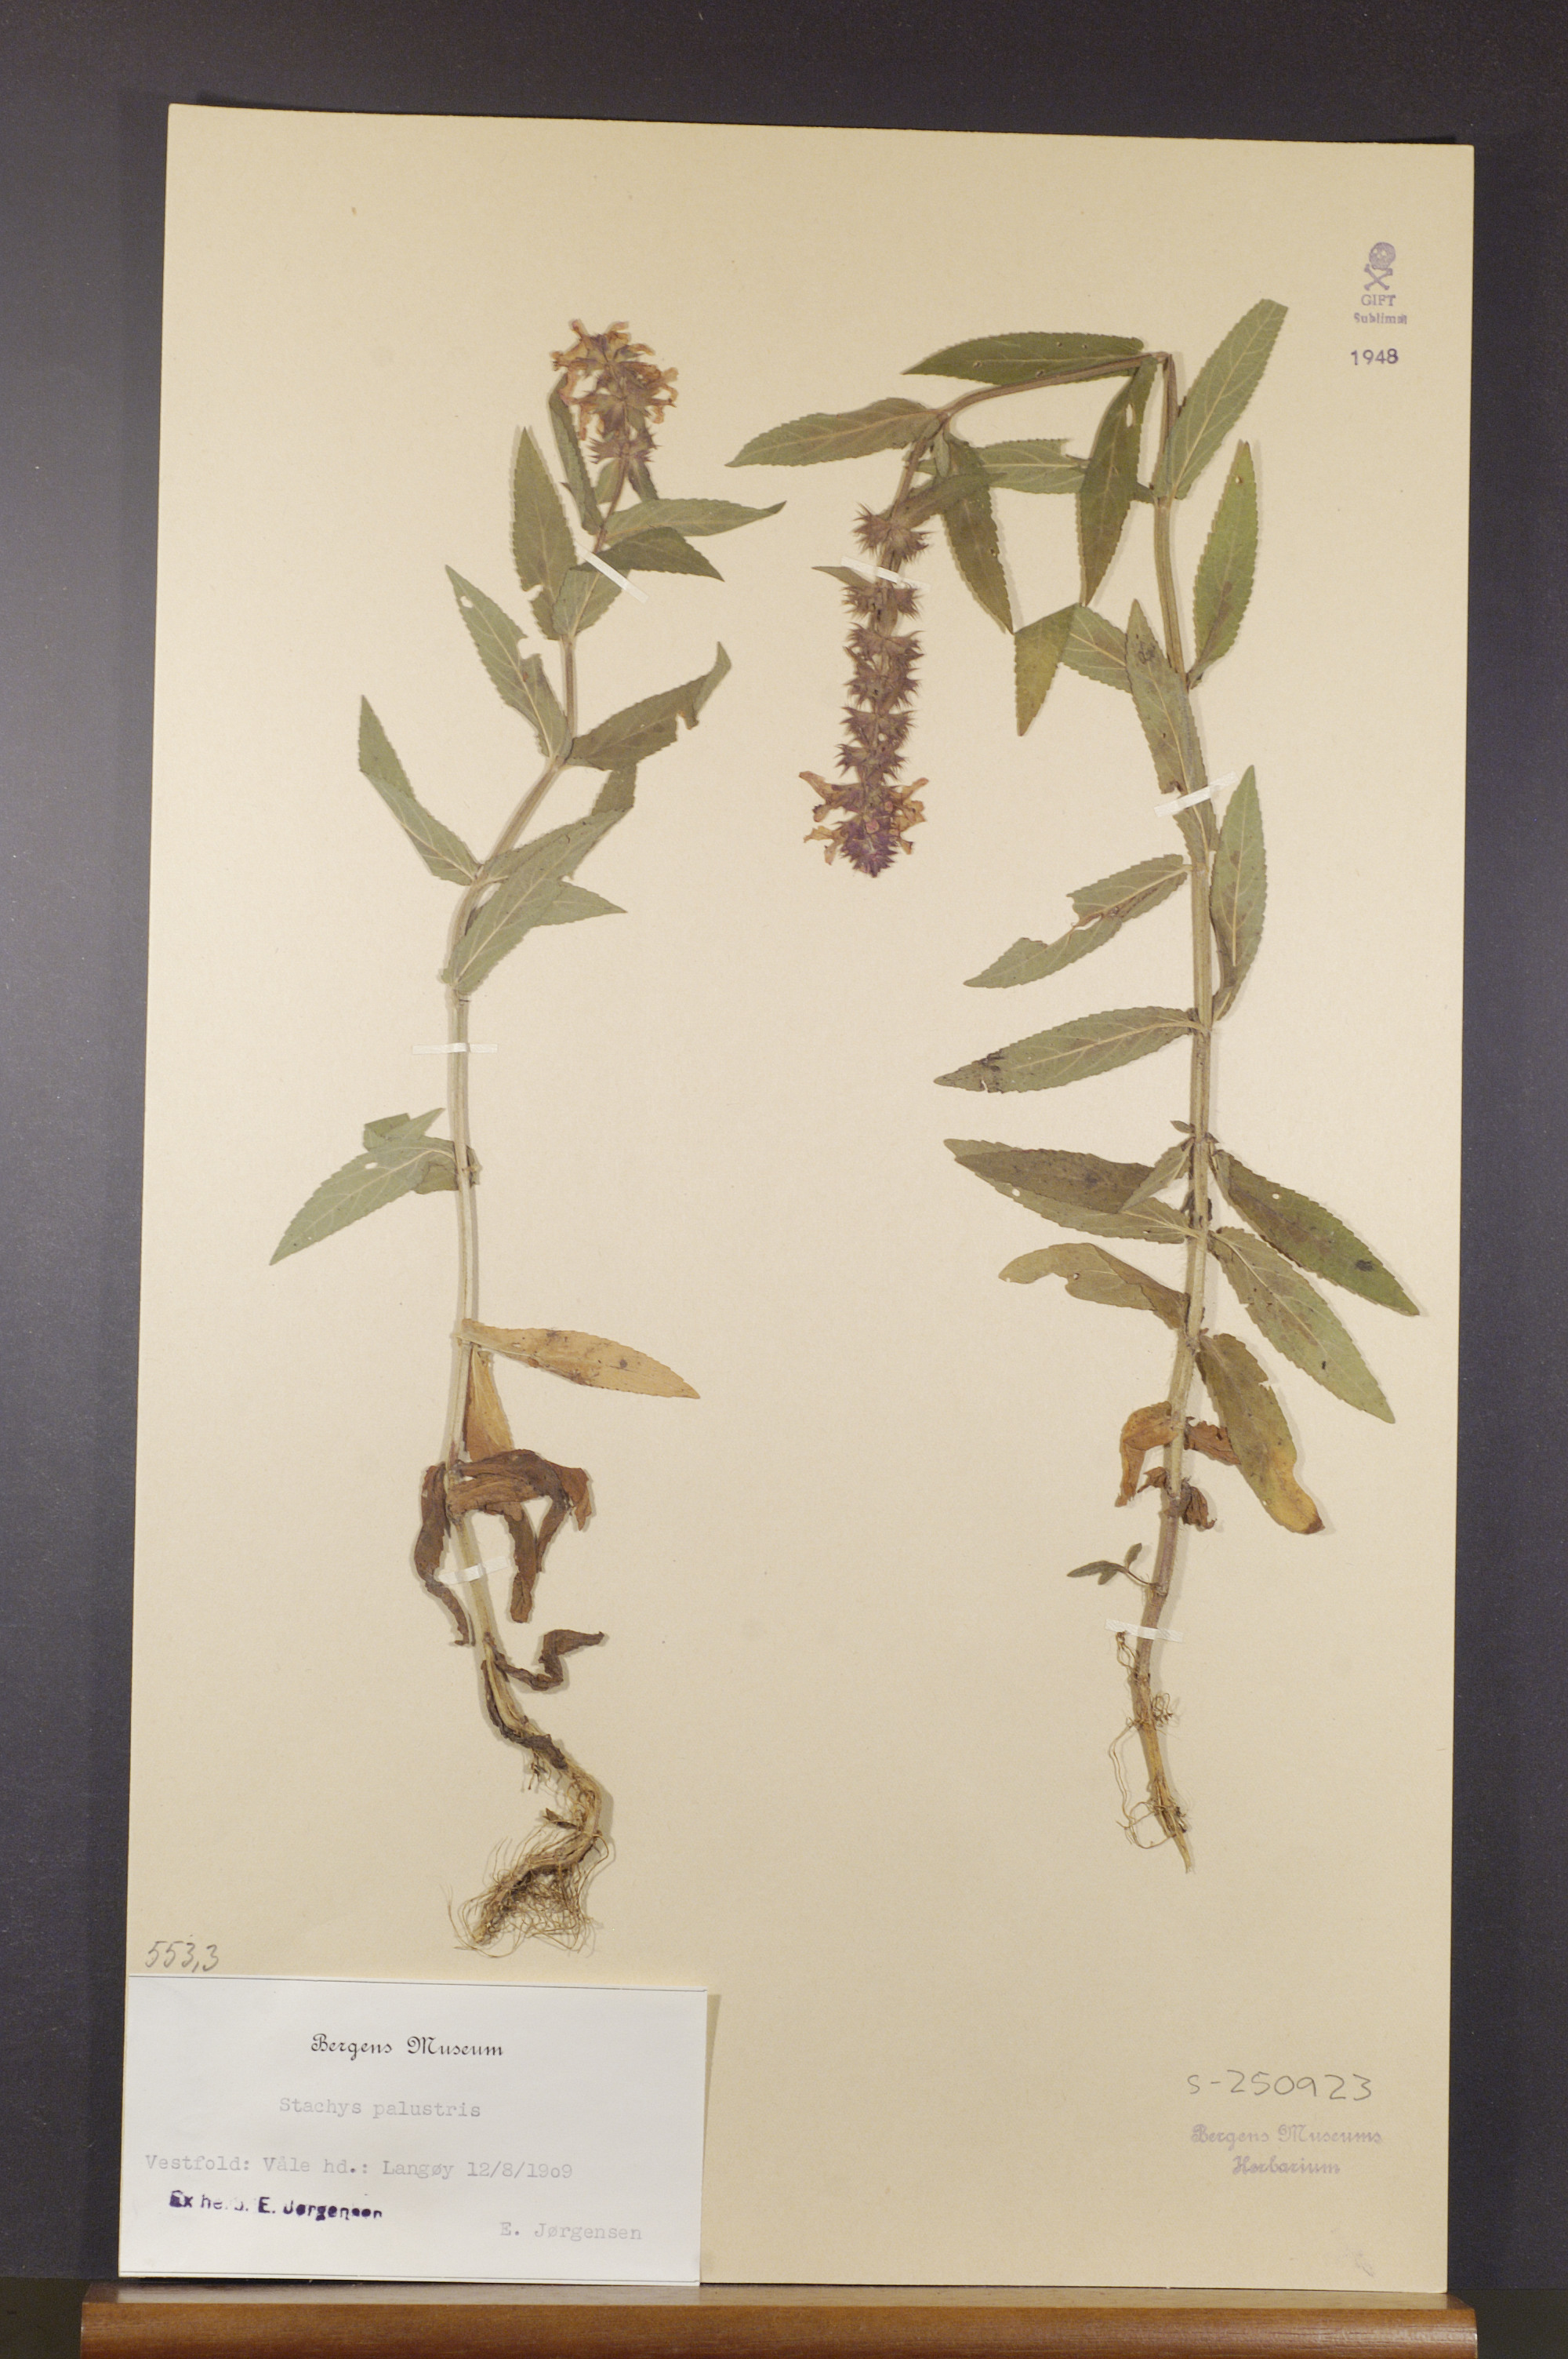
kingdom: Plantae
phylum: Tracheophyta
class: Magnoliopsida
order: Lamiales
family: Lamiaceae
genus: Stachys
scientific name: Stachys palustris
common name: Marsh woundwort
